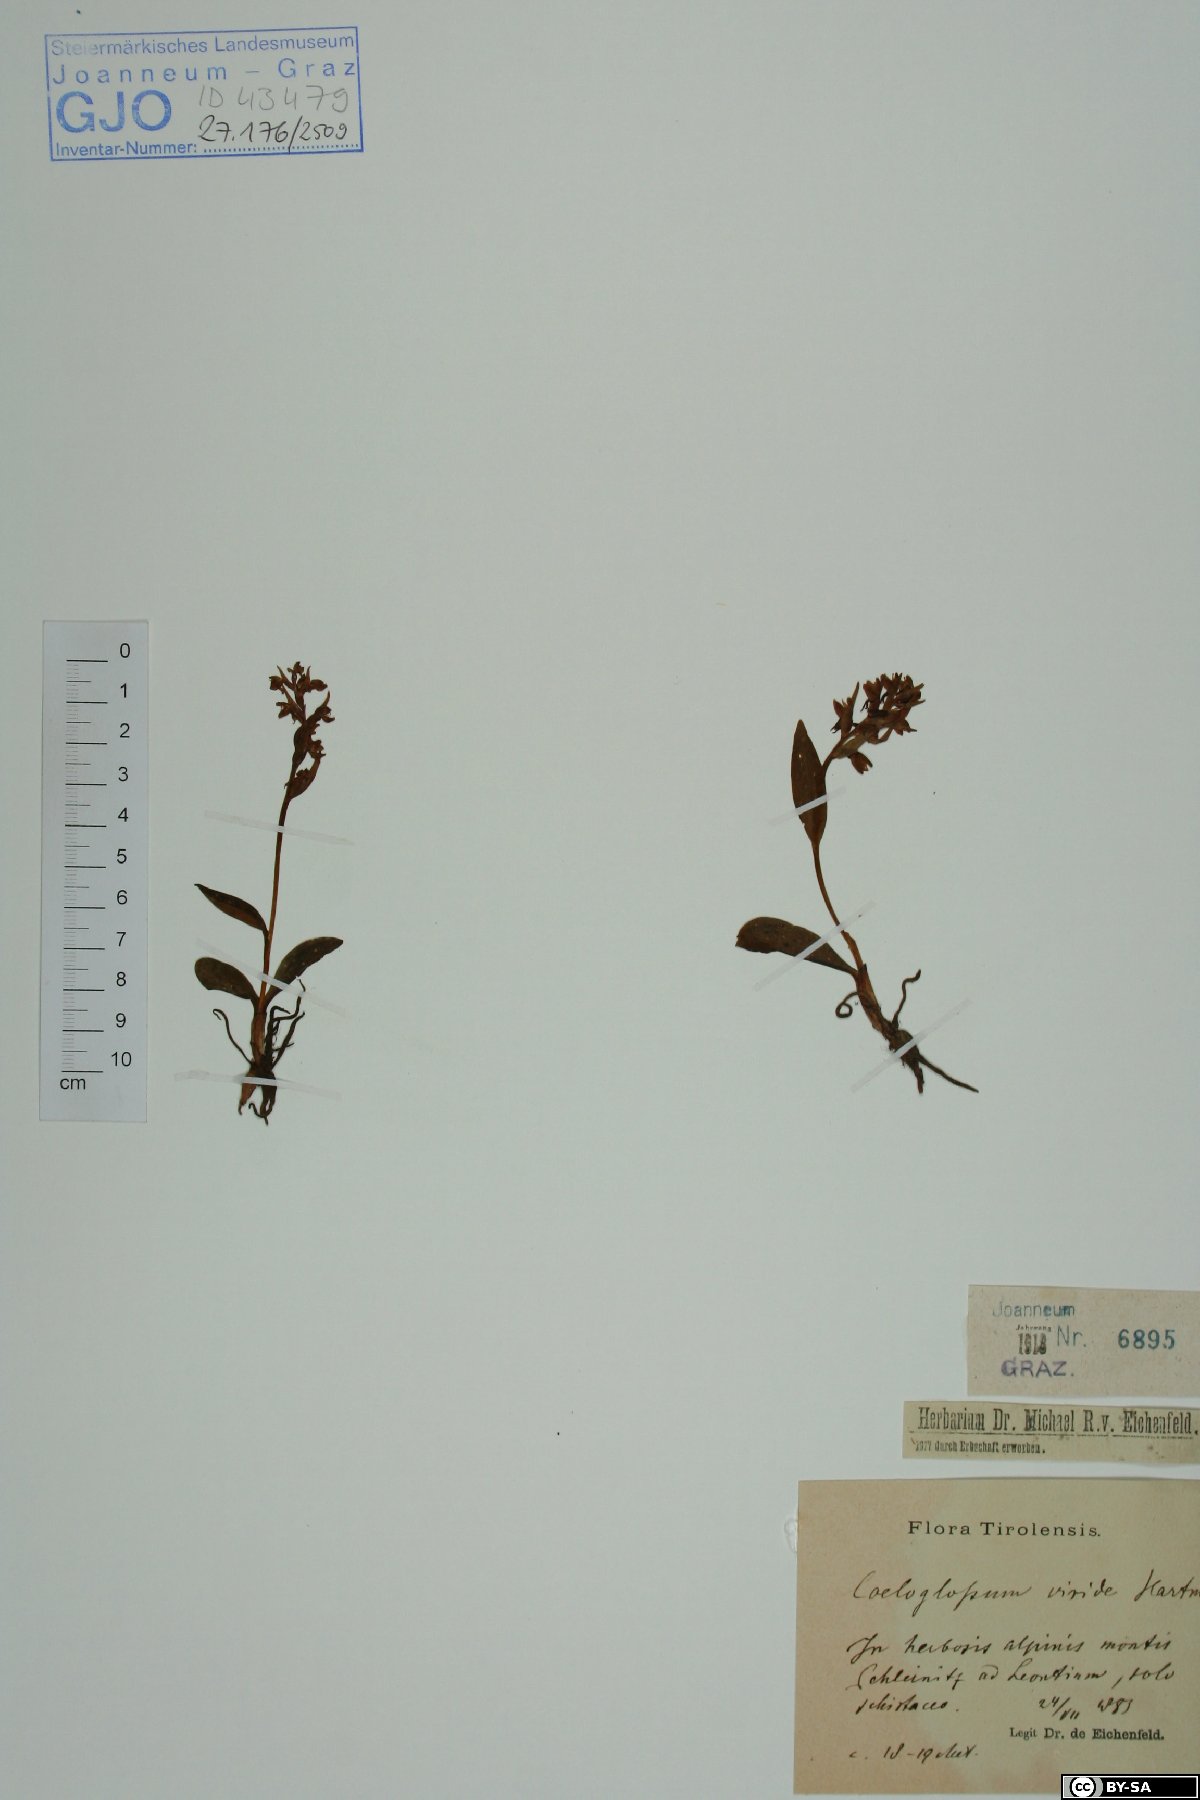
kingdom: Plantae
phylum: Tracheophyta
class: Liliopsida
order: Asparagales
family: Orchidaceae
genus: Dactylorhiza
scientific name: Dactylorhiza viridis
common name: Longbract frog orchid
